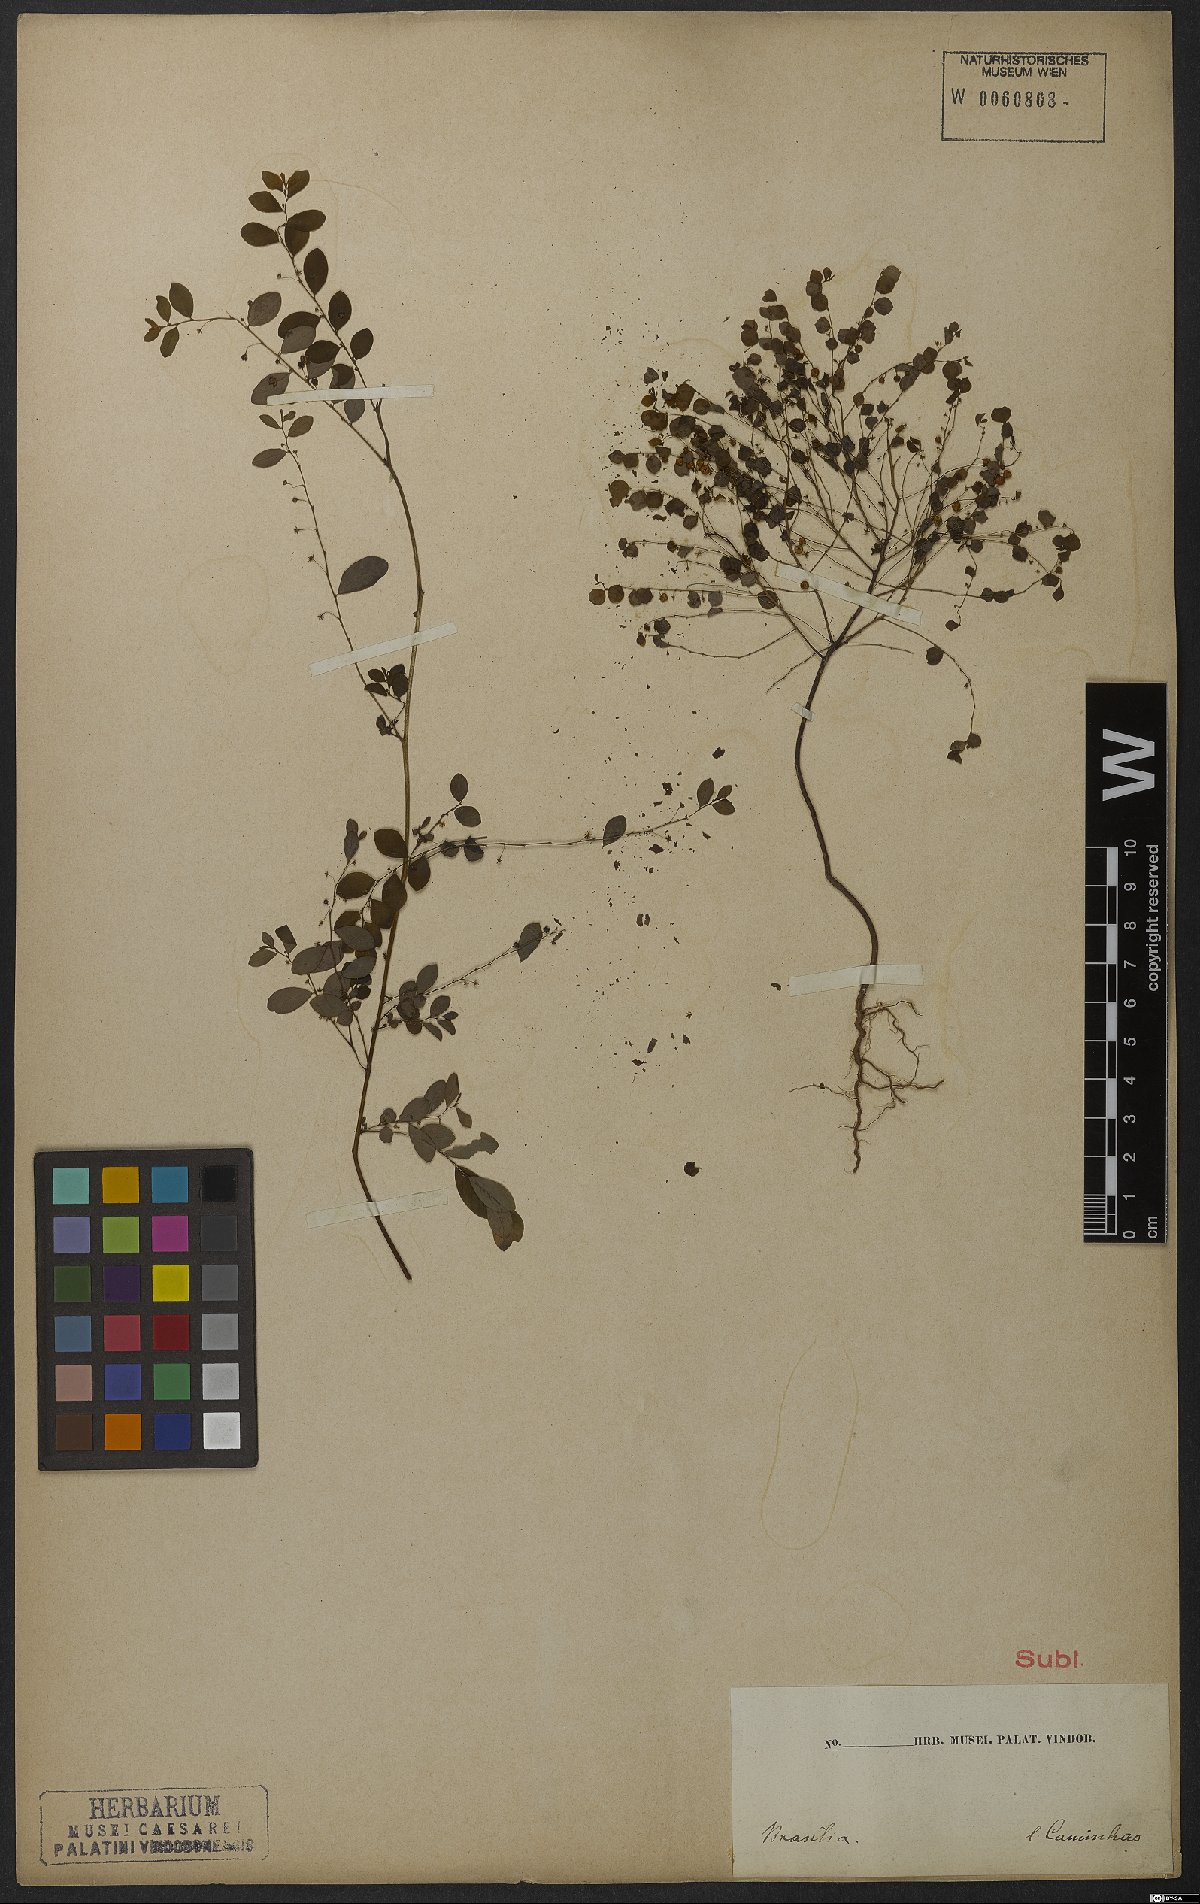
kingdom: Plantae
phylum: Tracheophyta
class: Magnoliopsida
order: Malpighiales
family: Phyllanthaceae
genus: Phyllanthus
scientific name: Phyllanthus
